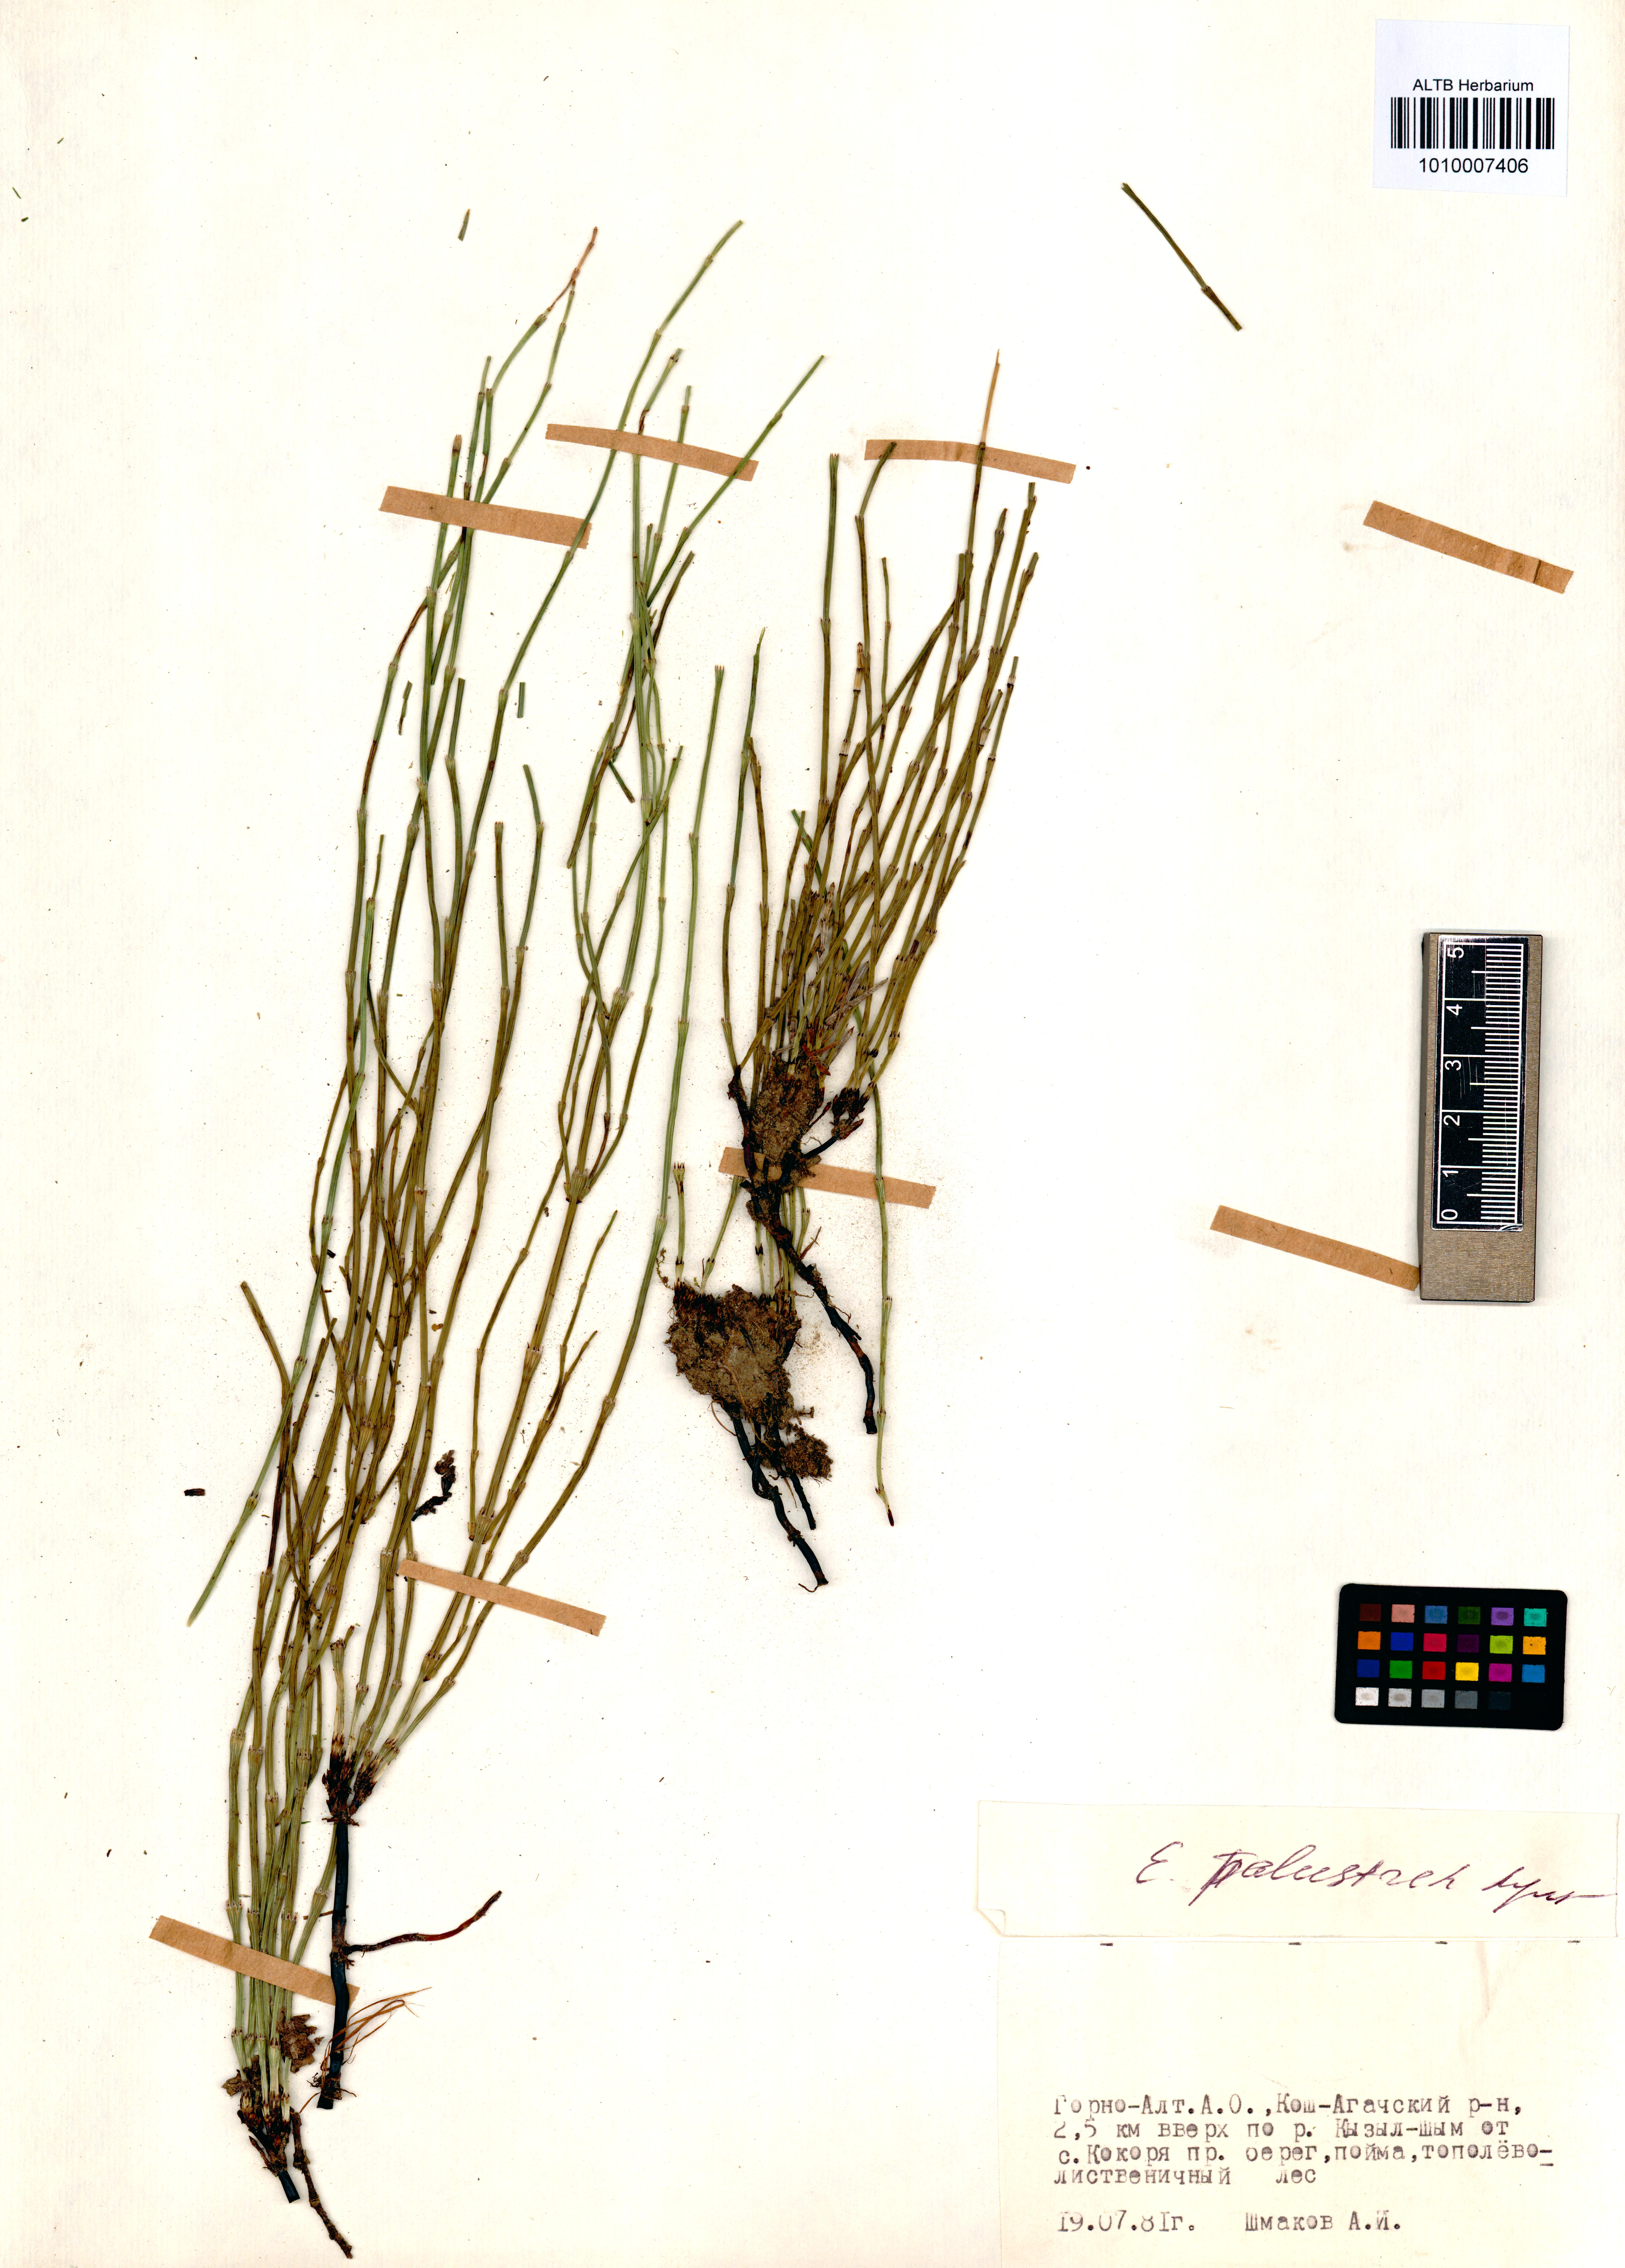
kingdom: Plantae
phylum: Tracheophyta
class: Polypodiopsida
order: Equisetales
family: Equisetaceae
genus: Equisetum
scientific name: Equisetum palustre
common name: Marsh horsetail
